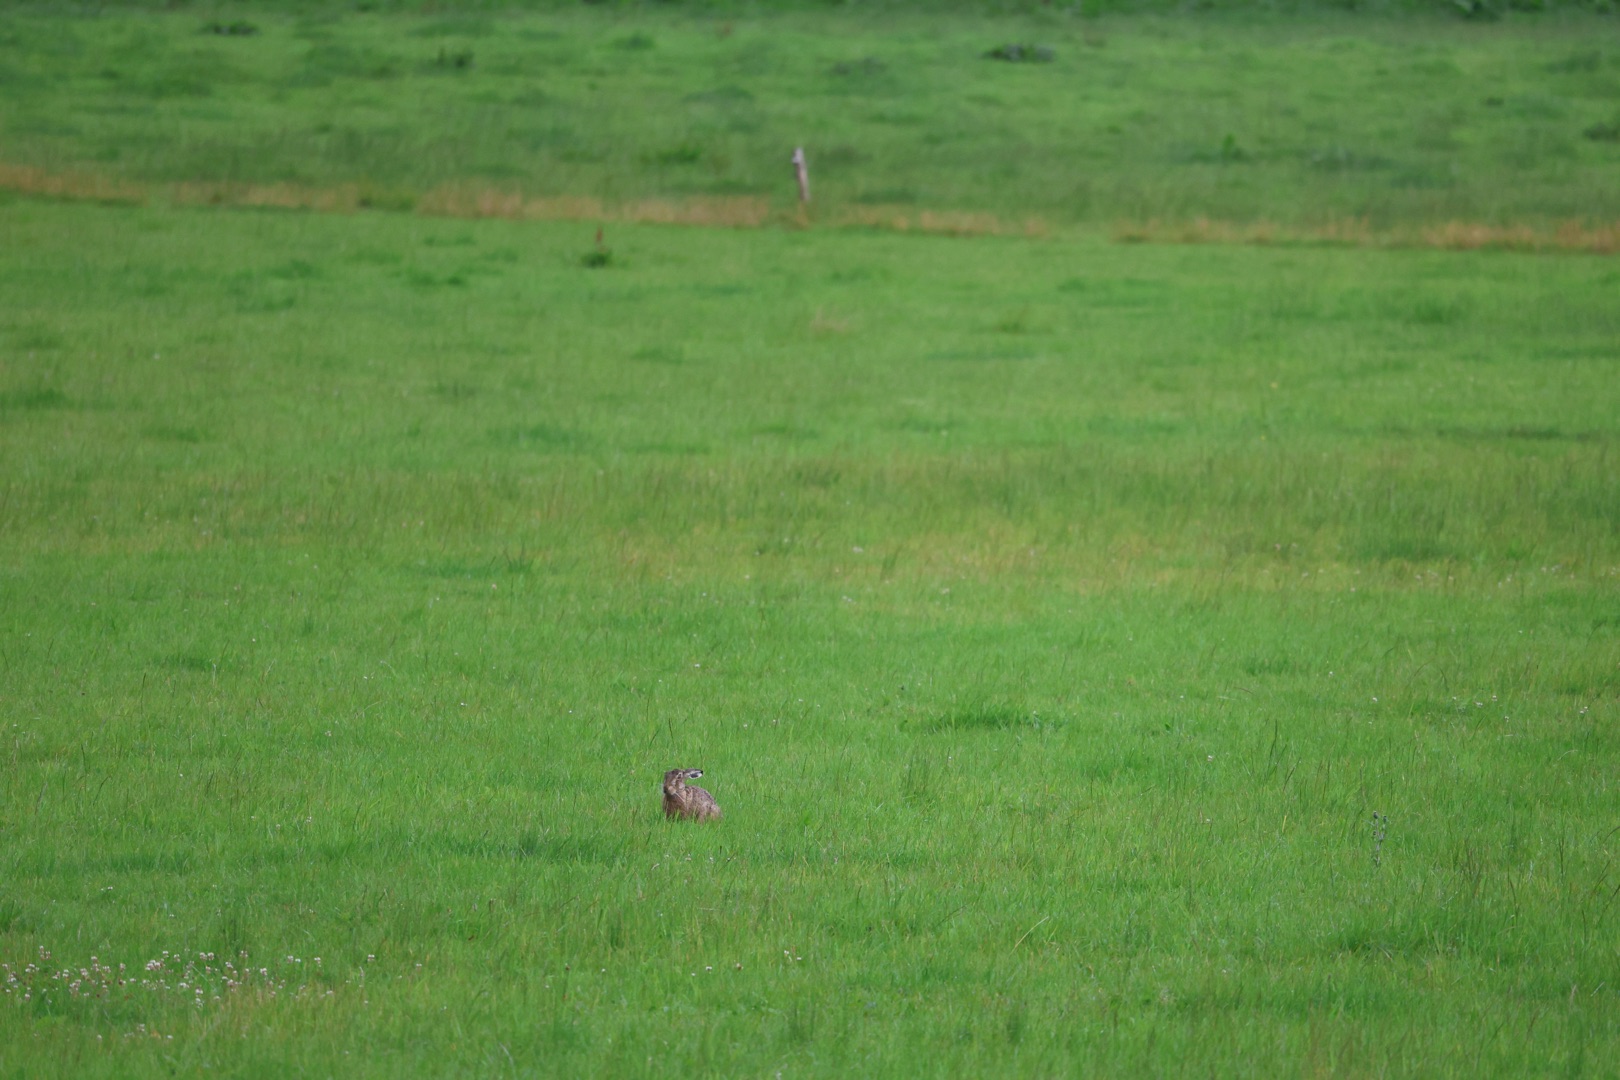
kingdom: Animalia
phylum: Chordata
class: Mammalia
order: Lagomorpha
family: Leporidae
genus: Lepus
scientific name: Lepus europaeus
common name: Hare
